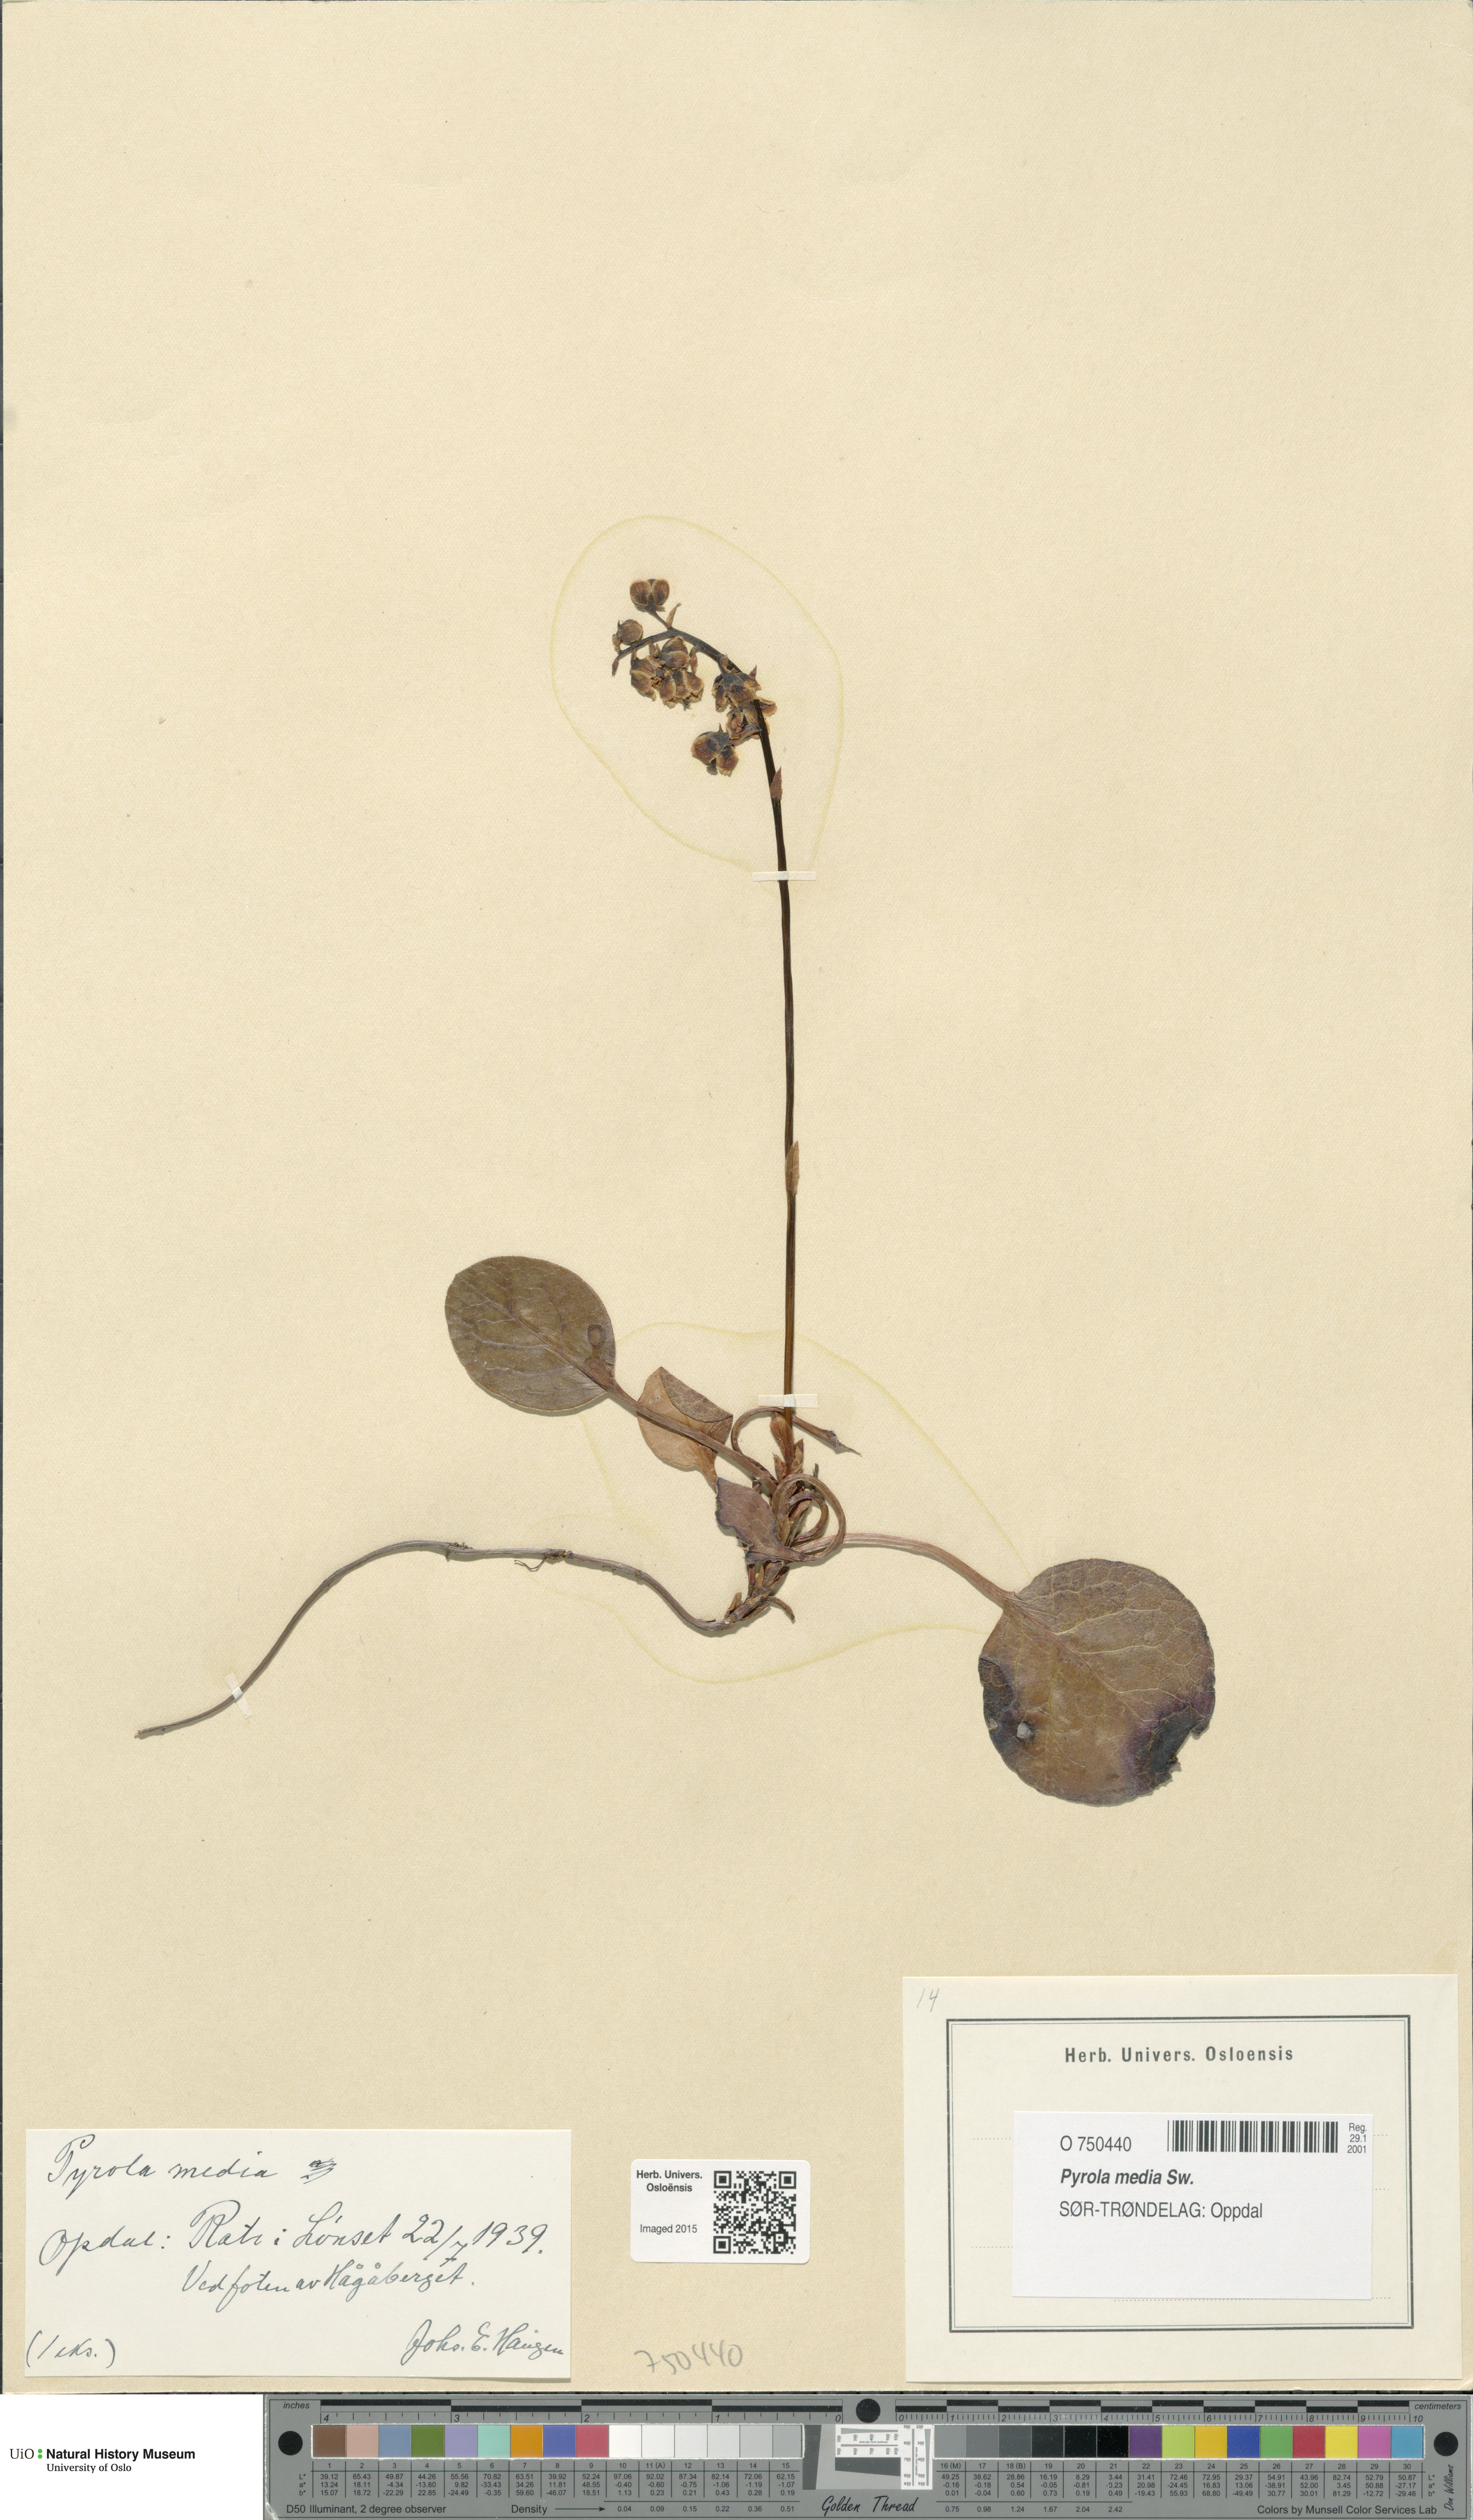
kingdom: Plantae
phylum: Tracheophyta
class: Magnoliopsida
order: Ericales
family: Ericaceae
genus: Pyrola
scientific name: Pyrola media
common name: Intermediate wintergreen
